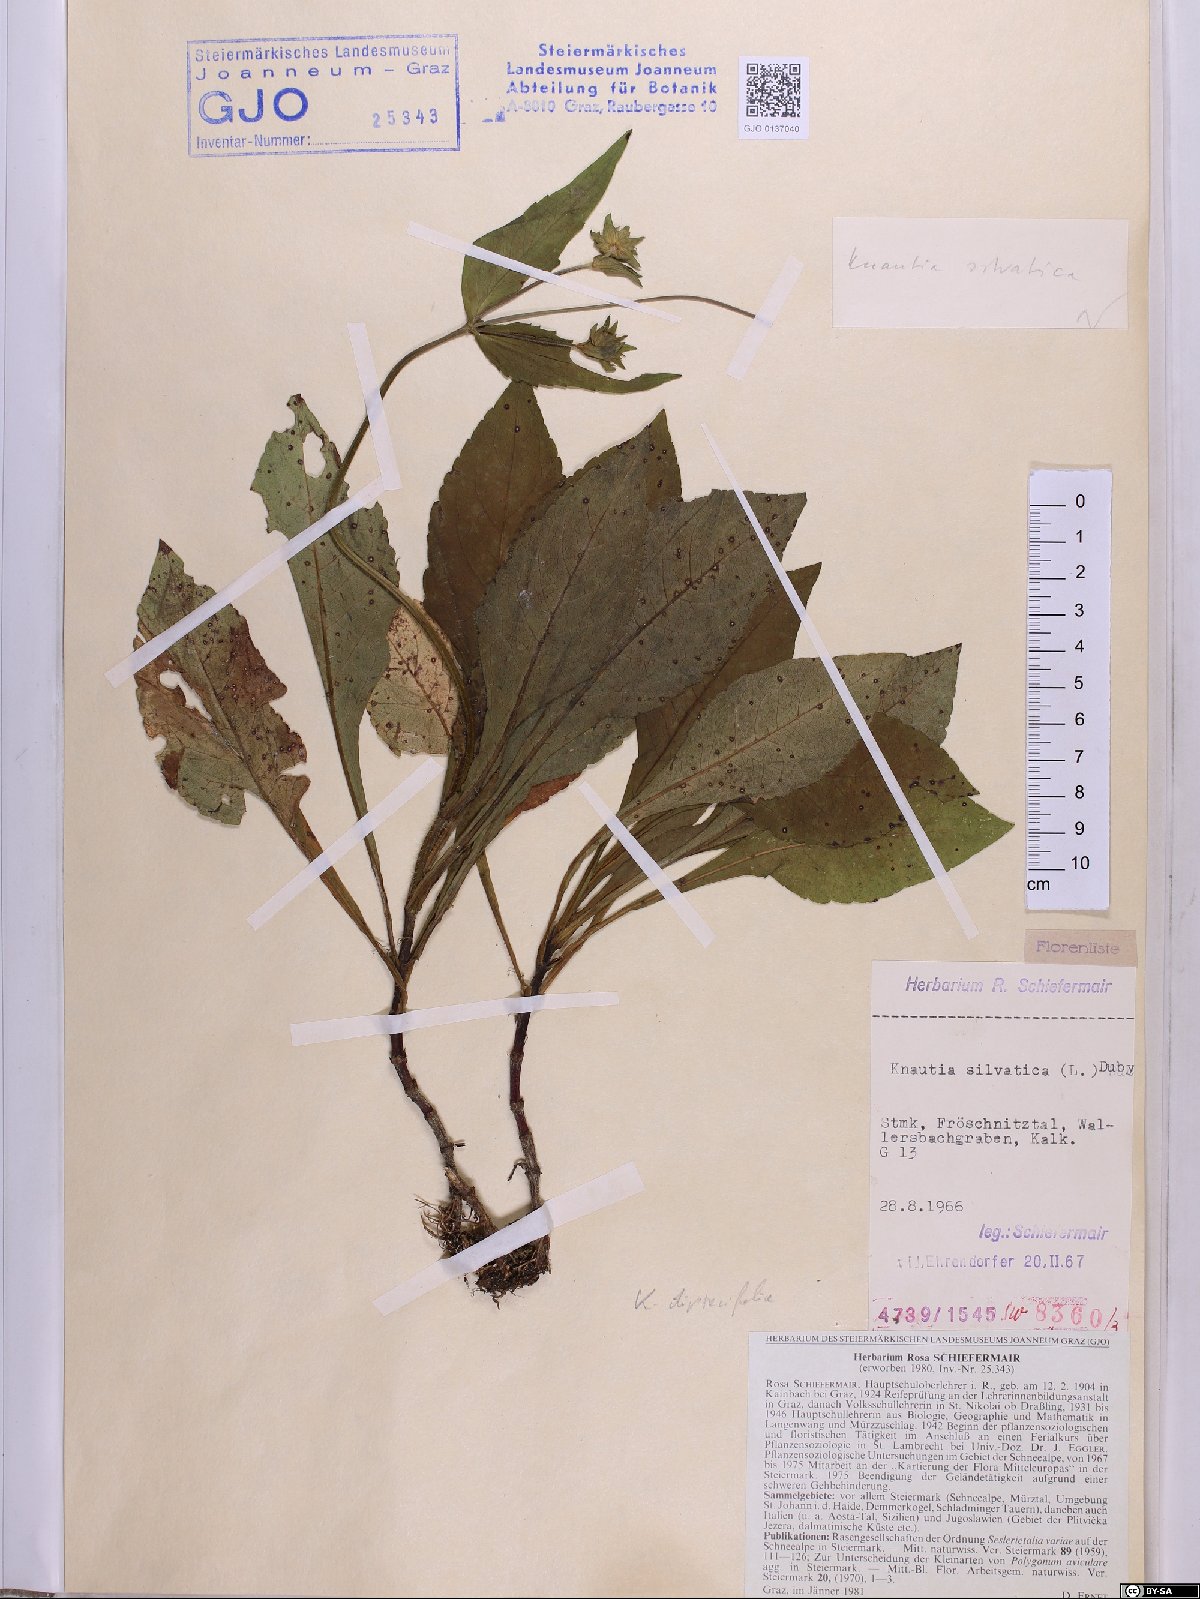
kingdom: Plantae
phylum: Tracheophyta
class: Magnoliopsida
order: Dipsacales
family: Caprifoliaceae
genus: Knautia
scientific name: Knautia drymeia
